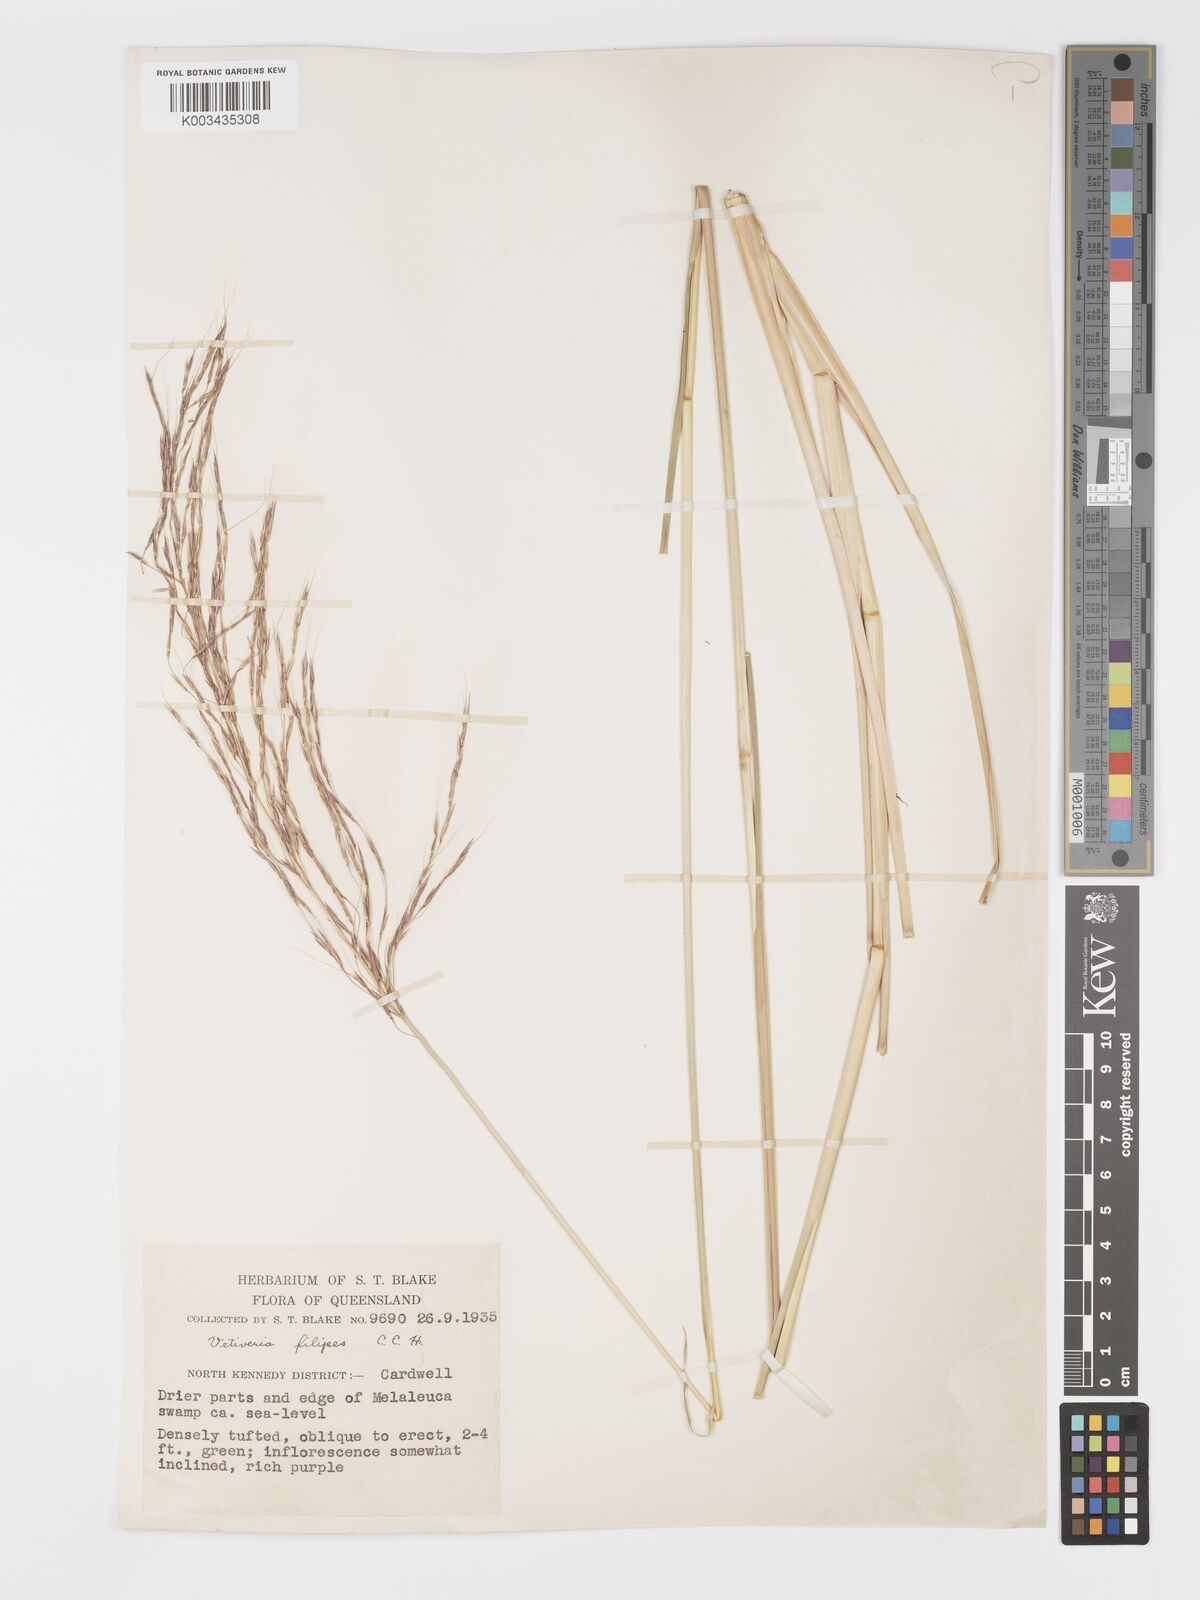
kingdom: Plantae
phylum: Tracheophyta
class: Liliopsida
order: Poales
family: Poaceae
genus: Chrysopogon
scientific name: Chrysopogon filipes
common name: Australian vetiver
